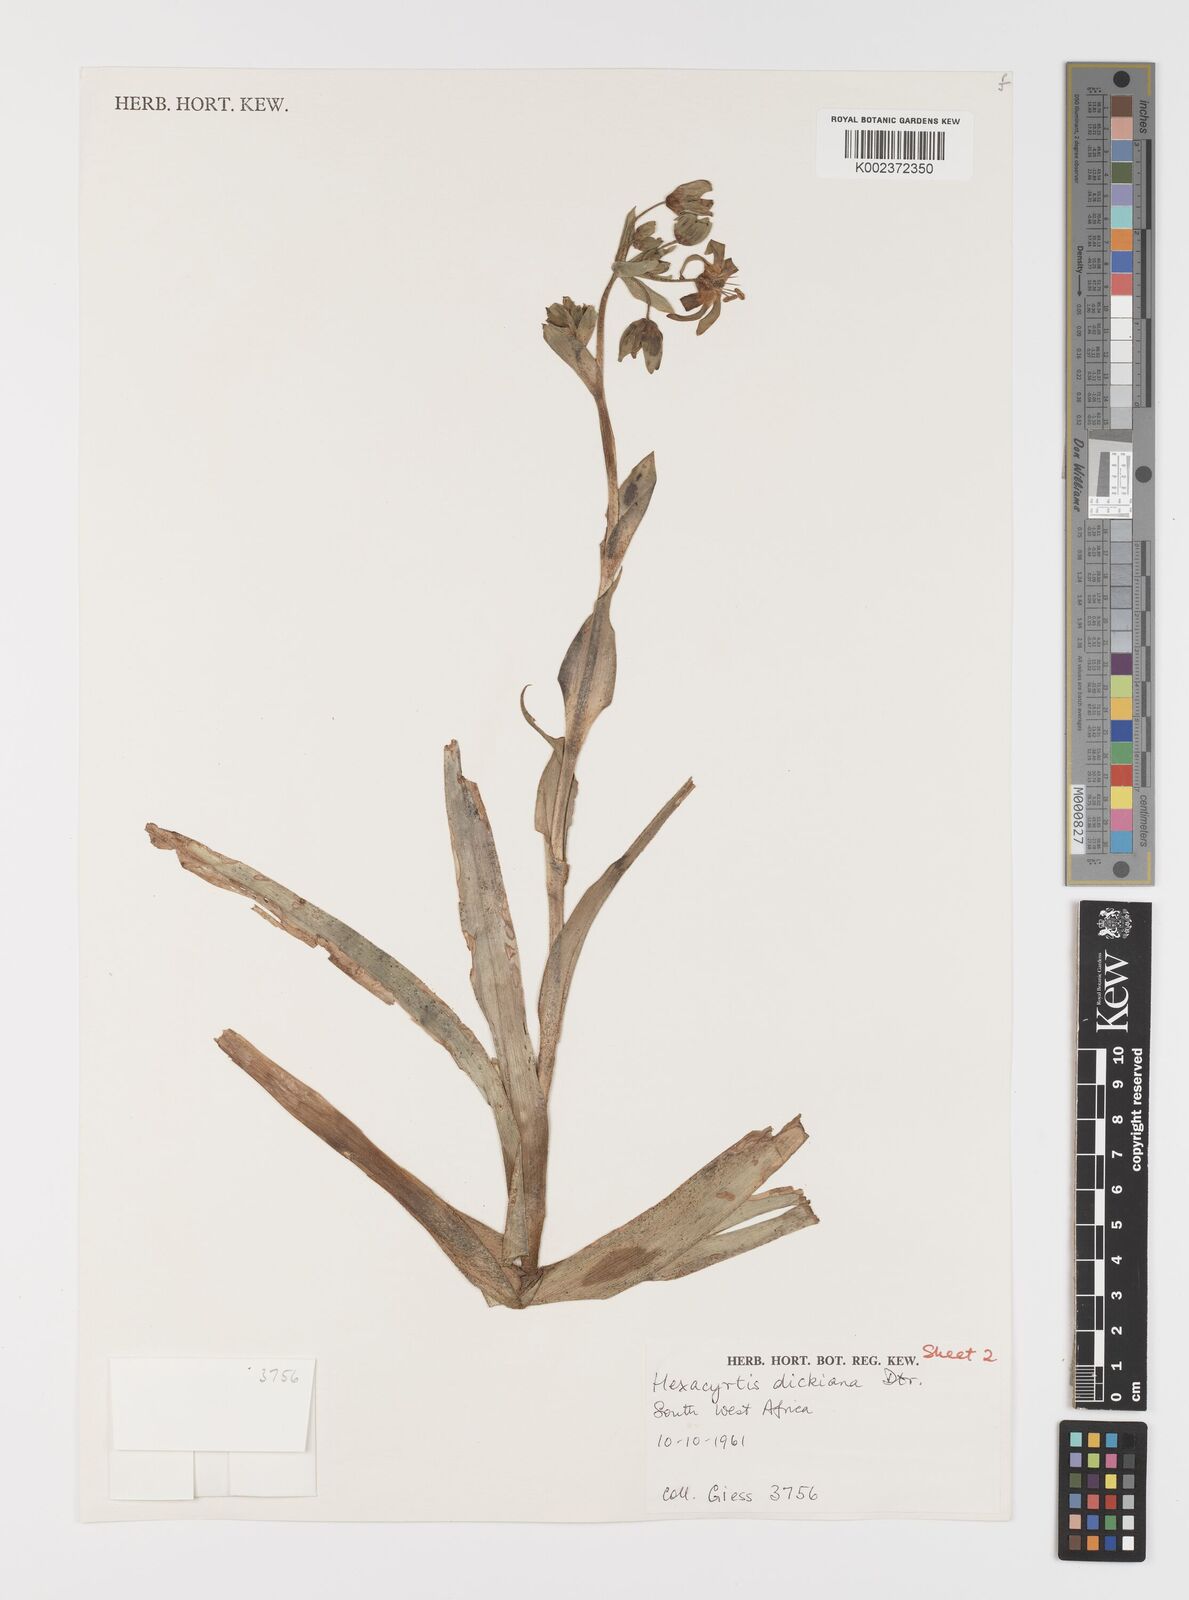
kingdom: Plantae
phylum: Tracheophyta
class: Liliopsida
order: Liliales
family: Colchicaceae
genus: Hexacyrtis
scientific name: Hexacyrtis dickiana
